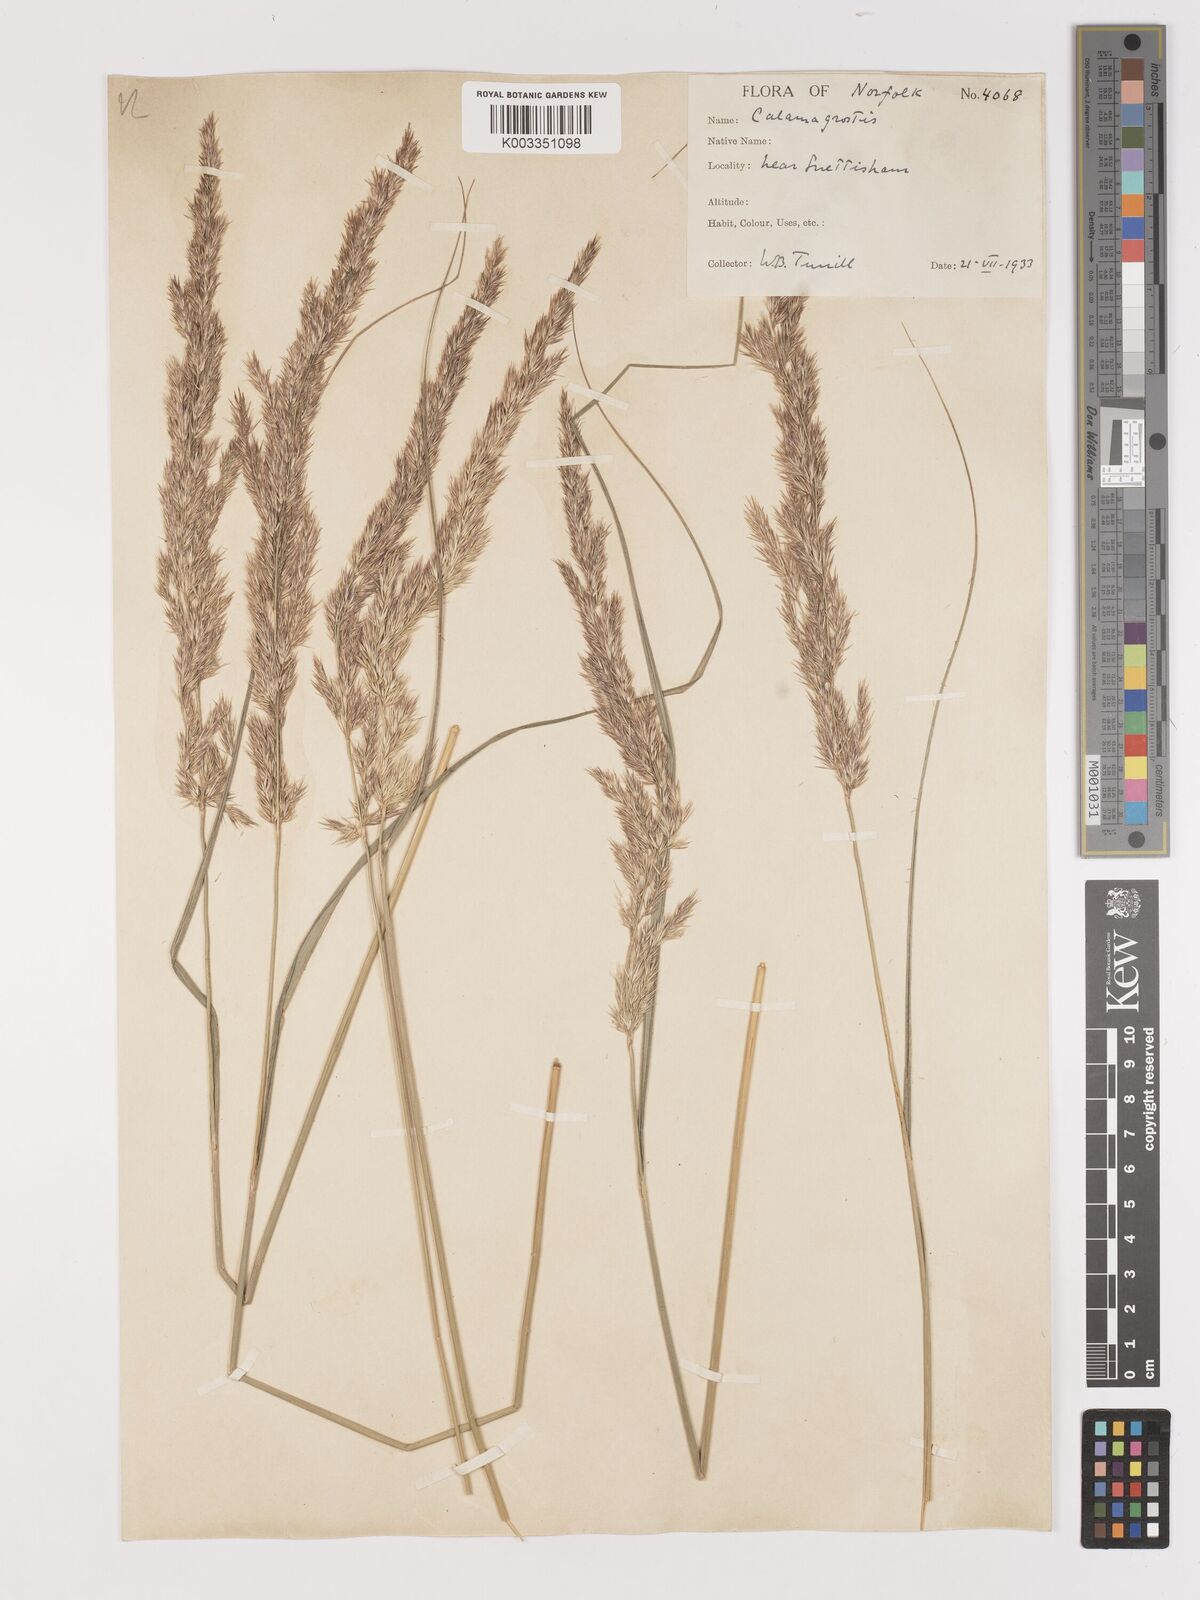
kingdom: Plantae
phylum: Tracheophyta
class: Liliopsida
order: Poales
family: Poaceae
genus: Calamagrostis
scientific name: Calamagrostis
